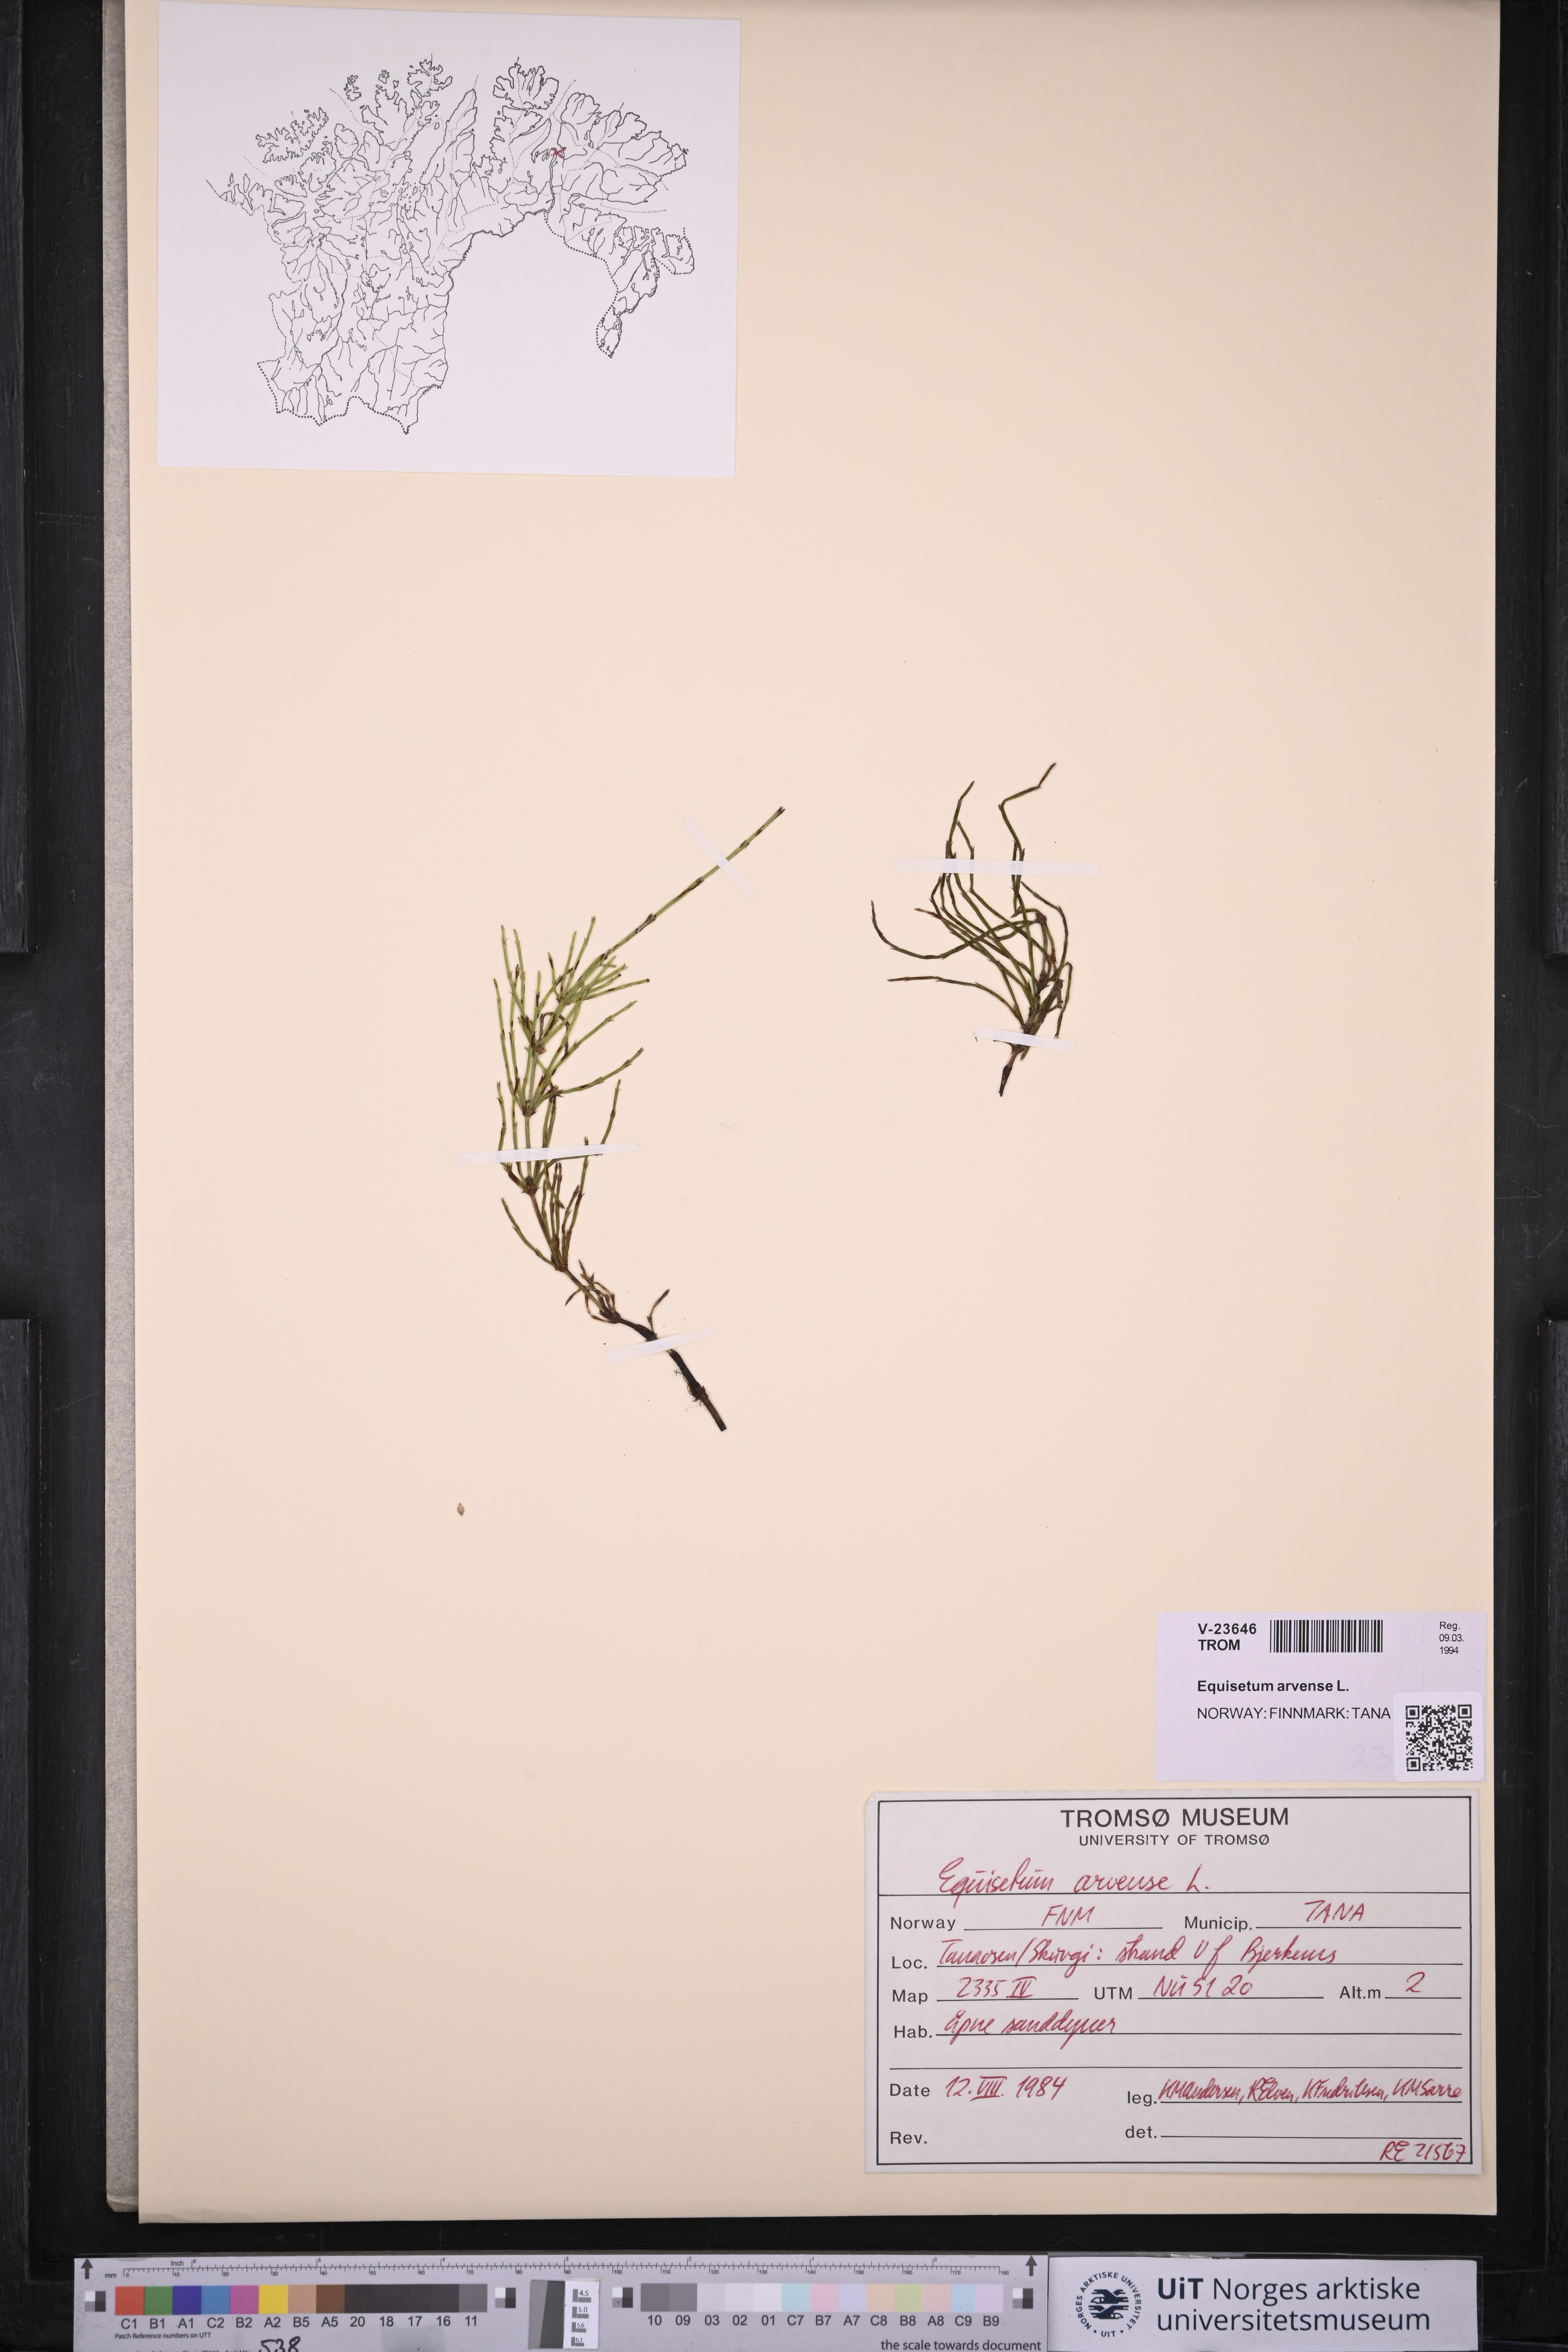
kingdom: Plantae
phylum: Tracheophyta
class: Polypodiopsida
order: Equisetales
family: Equisetaceae
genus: Equisetum
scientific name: Equisetum arvense
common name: Field horsetail
